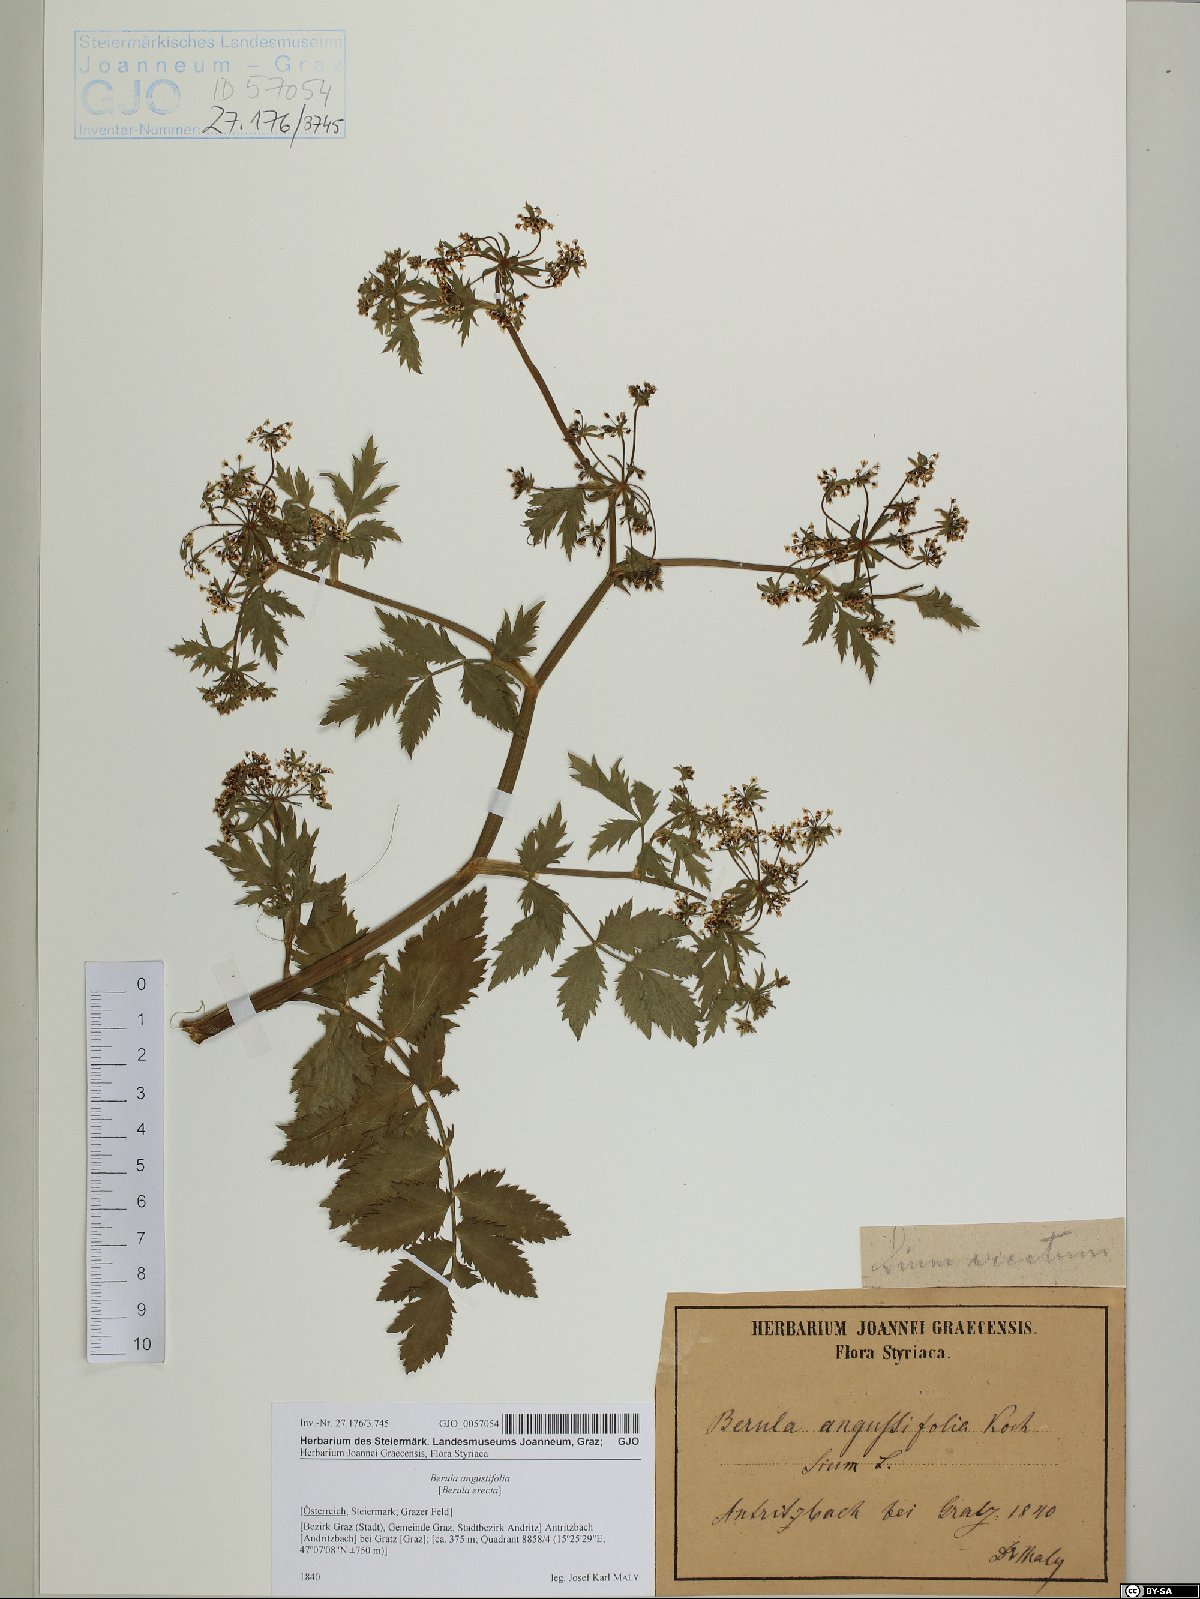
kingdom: Plantae
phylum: Tracheophyta
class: Magnoliopsida
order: Apiales
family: Apiaceae
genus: Berula
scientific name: Berula erecta
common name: Lesser water-parsnip
